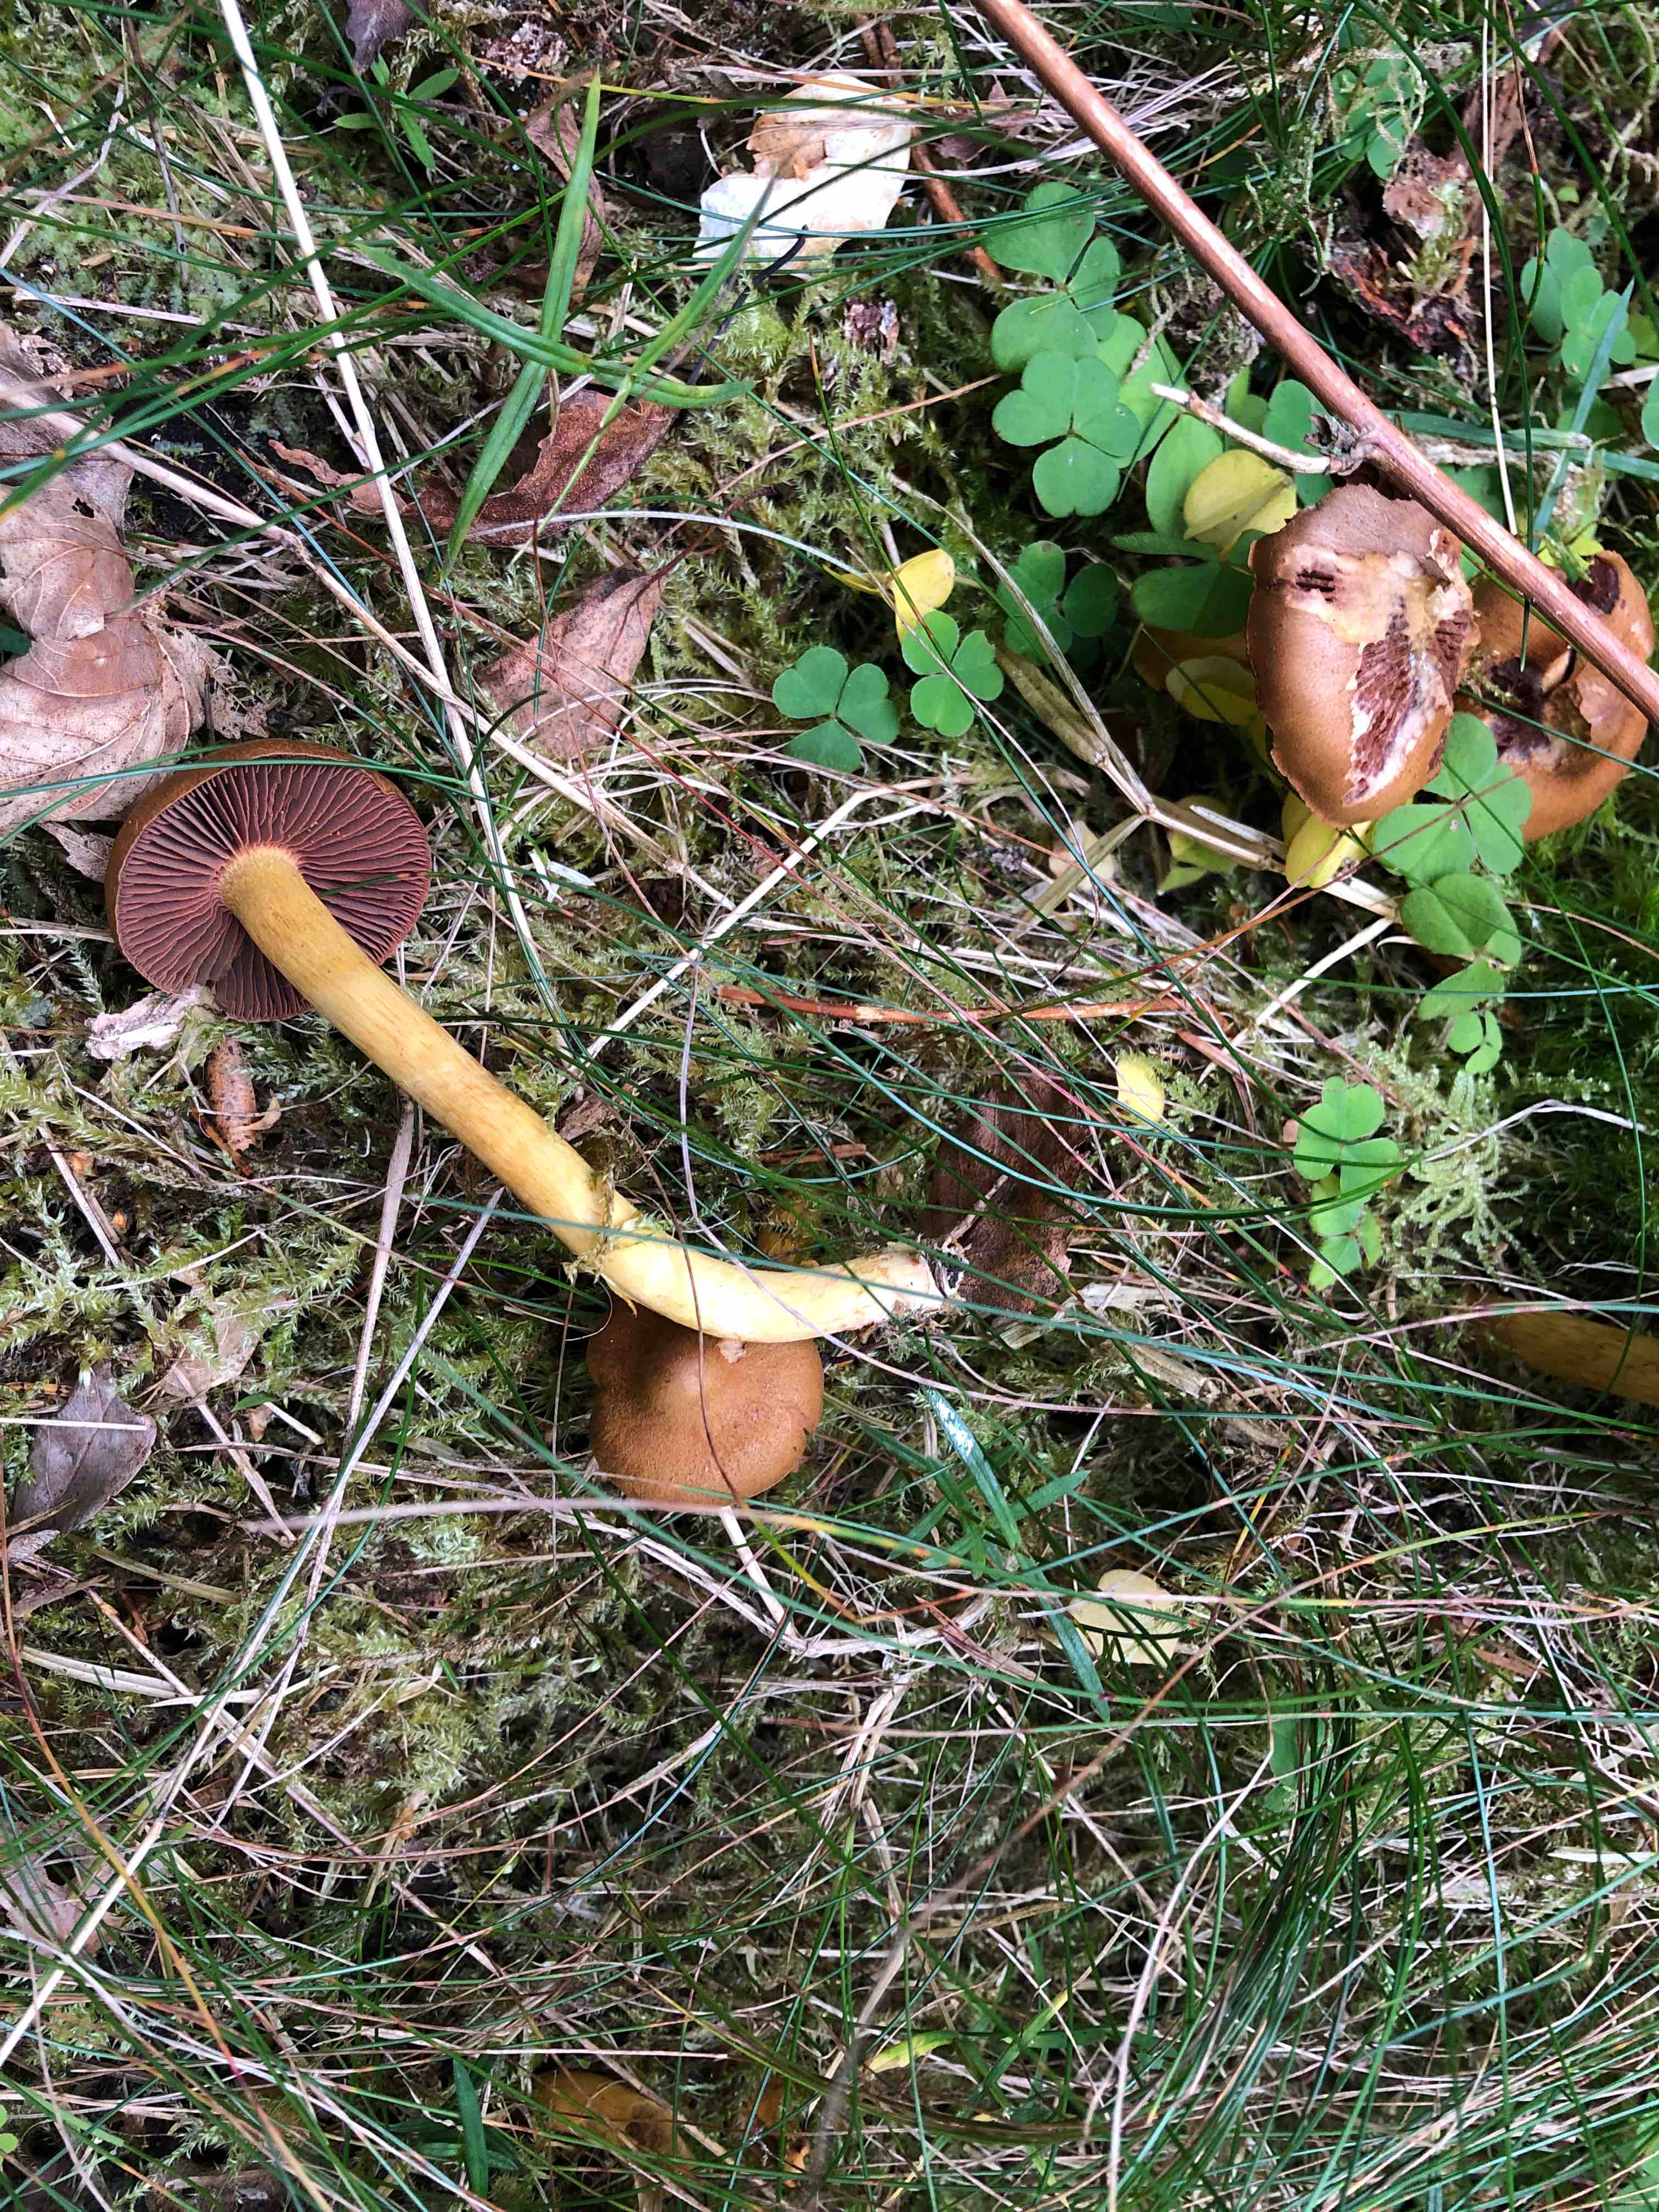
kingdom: Fungi
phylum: Basidiomycota
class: Agaricomycetes
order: Agaricales
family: Cortinariaceae
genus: Cortinarius
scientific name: Cortinarius
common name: cinnoberbladet slørhat
